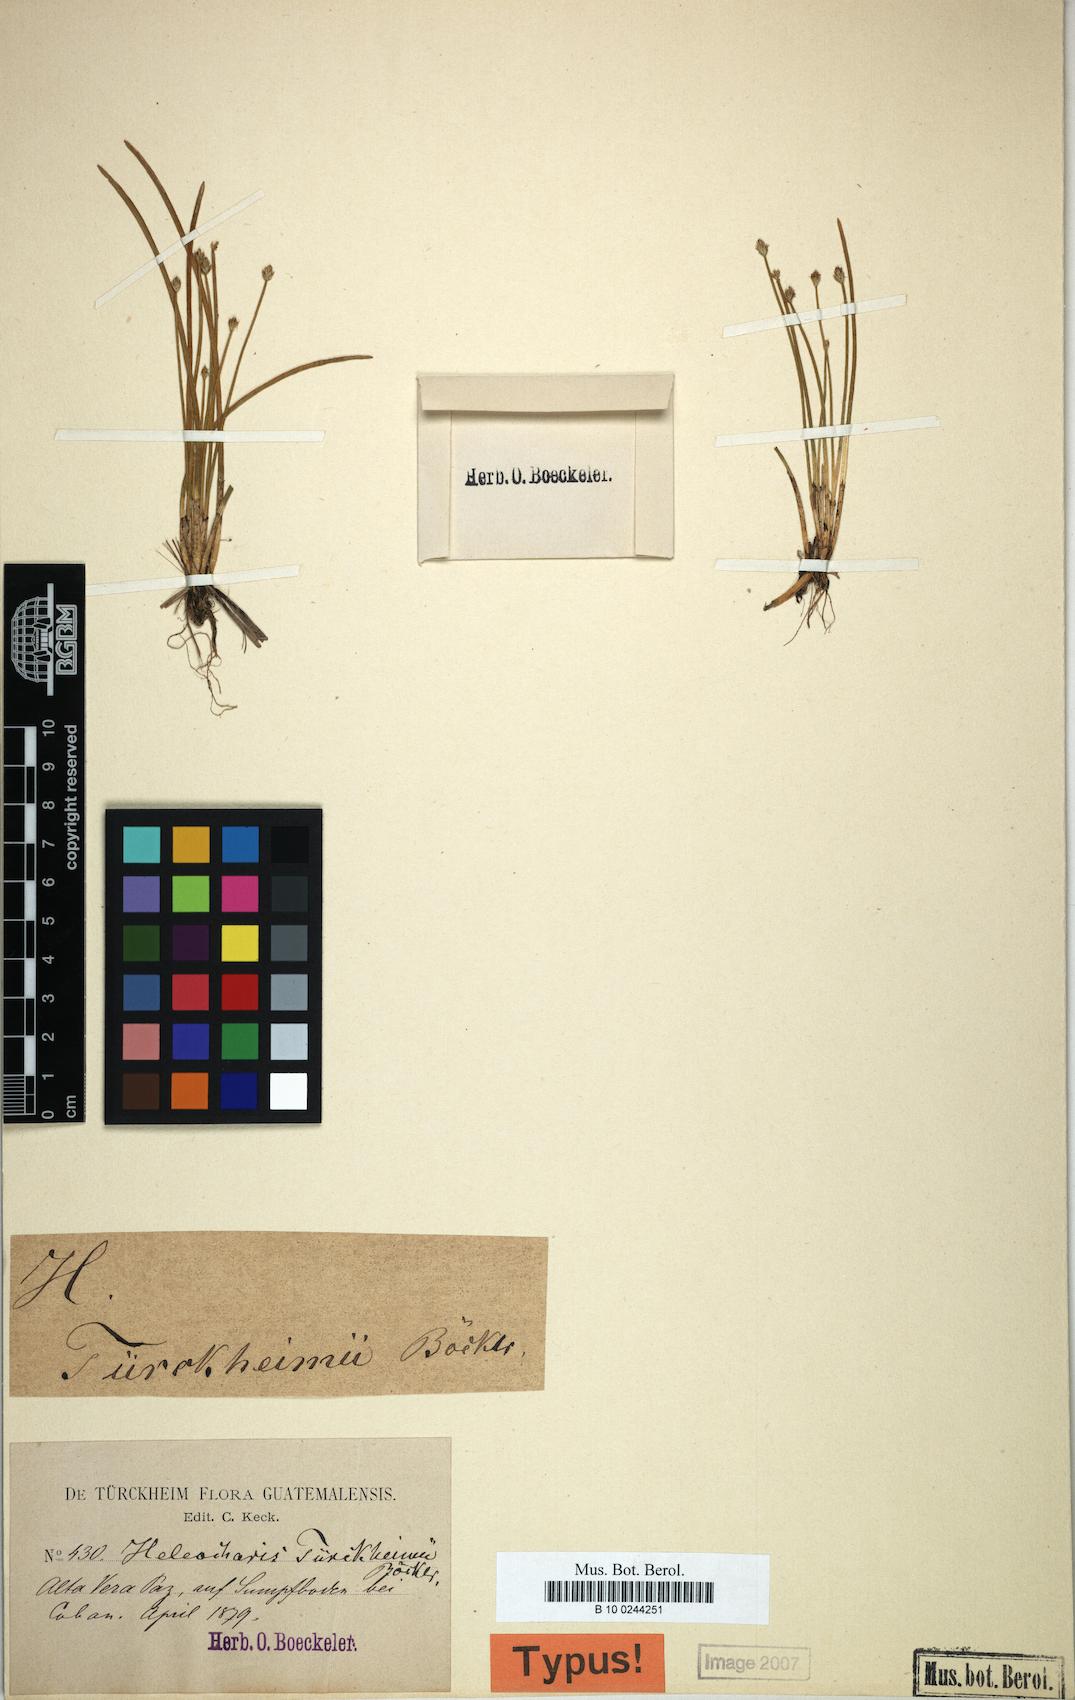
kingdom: Plantae
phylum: Tracheophyta
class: Liliopsida
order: Poales
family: Cyperaceae
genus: Eleocharis
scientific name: Eleocharis sellowiana
